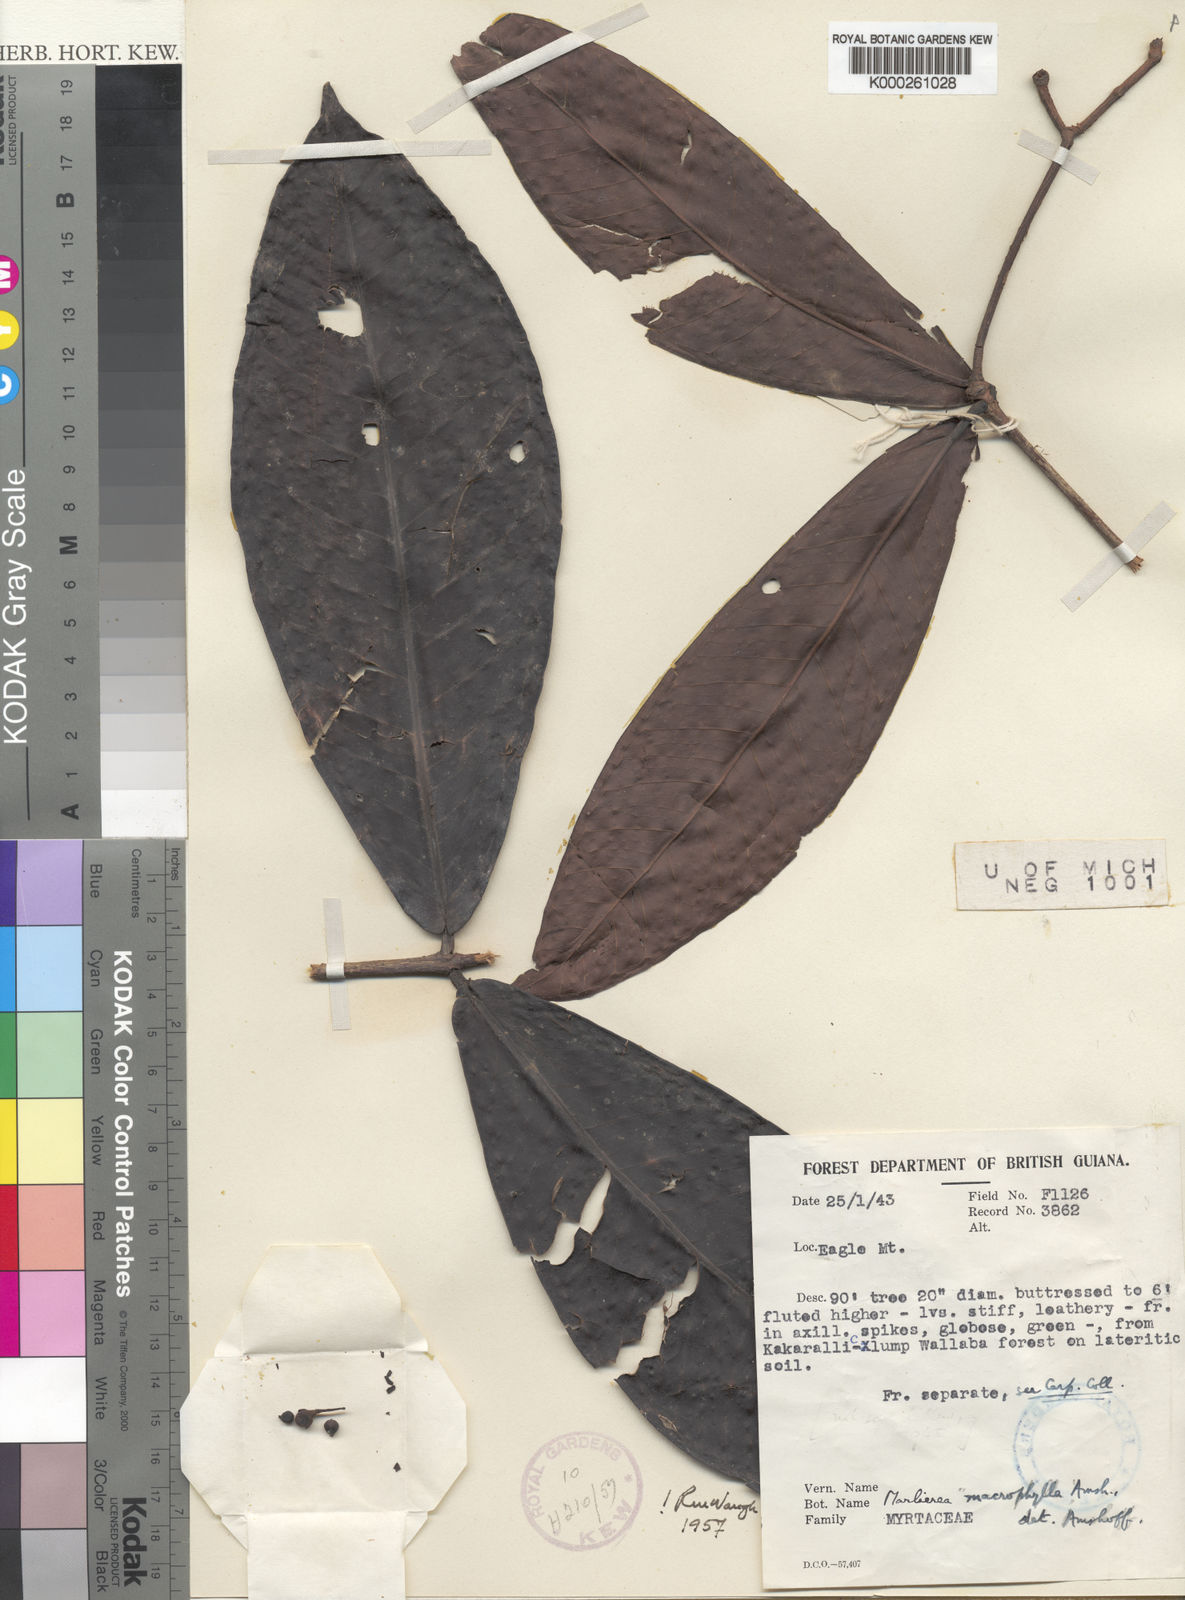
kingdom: Plantae
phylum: Tracheophyta
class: Magnoliopsida
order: Myrtales
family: Myrtaceae
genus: Myrcia
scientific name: Myrcia neomacrophylla
